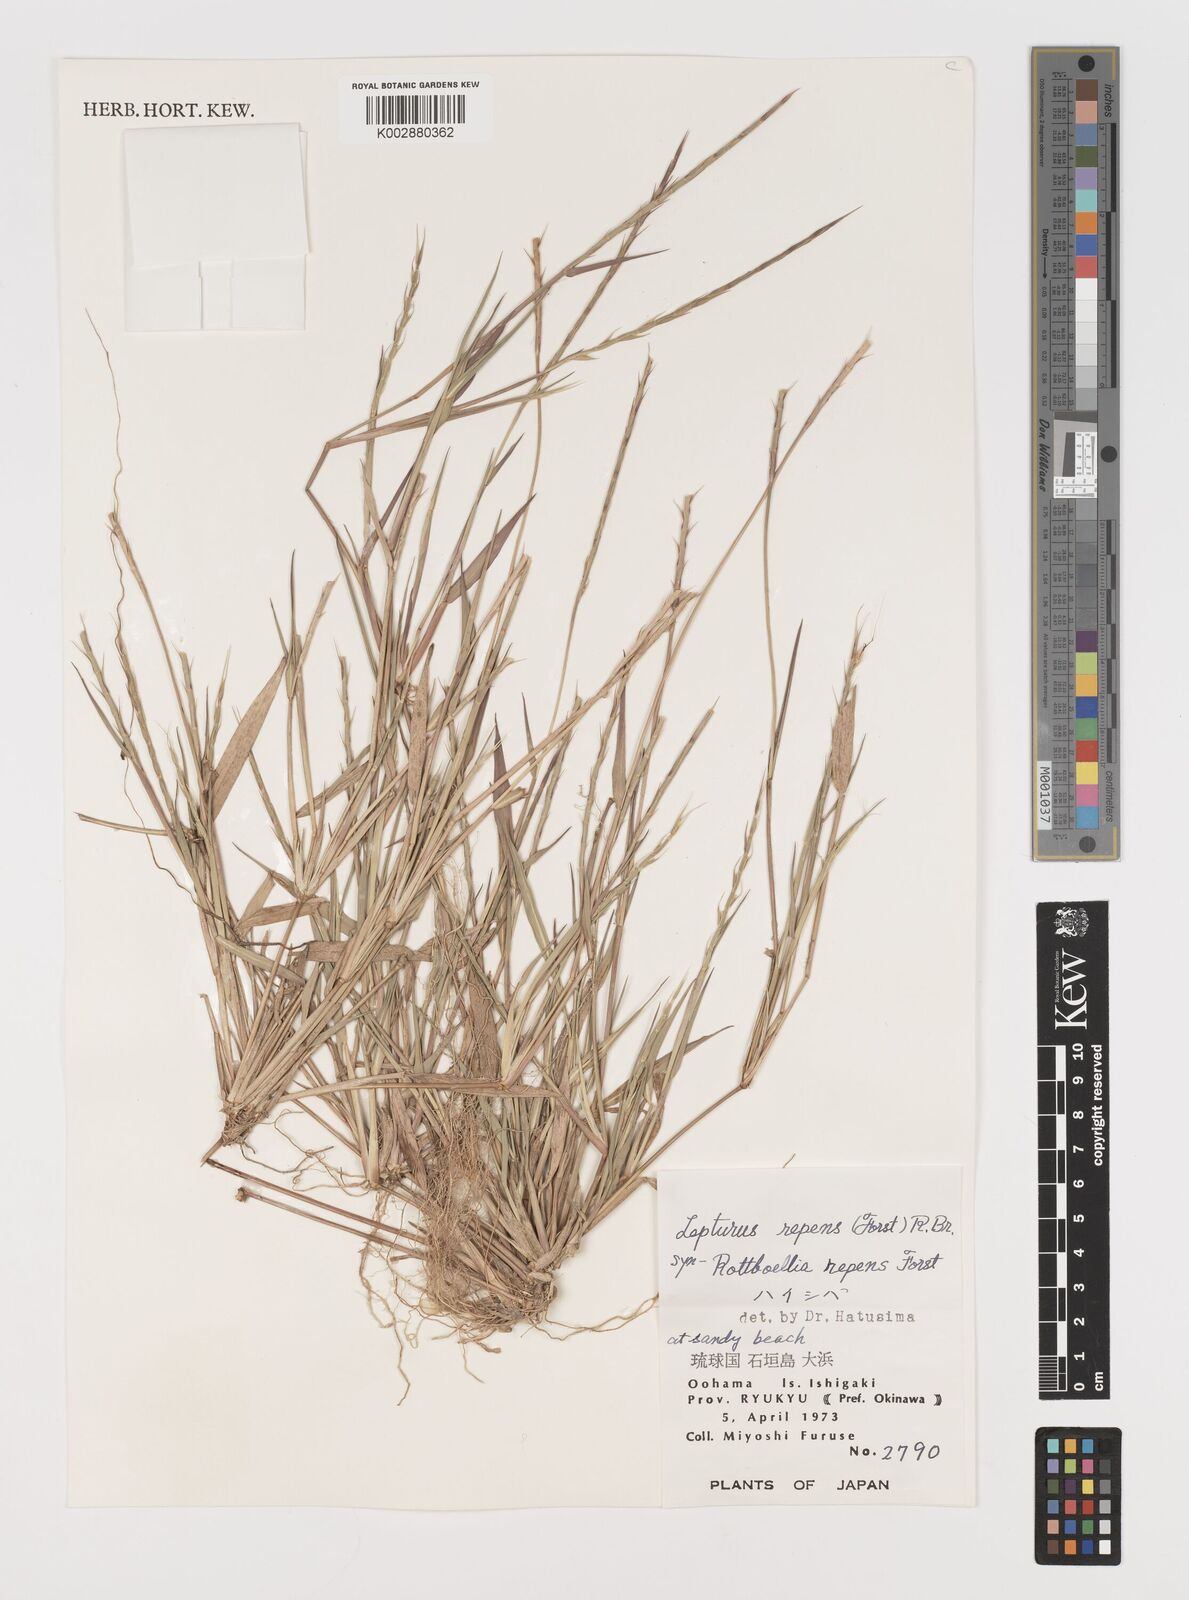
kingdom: Plantae
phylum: Tracheophyta
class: Liliopsida
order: Poales
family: Poaceae
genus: Lepturus
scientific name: Lepturus repens
